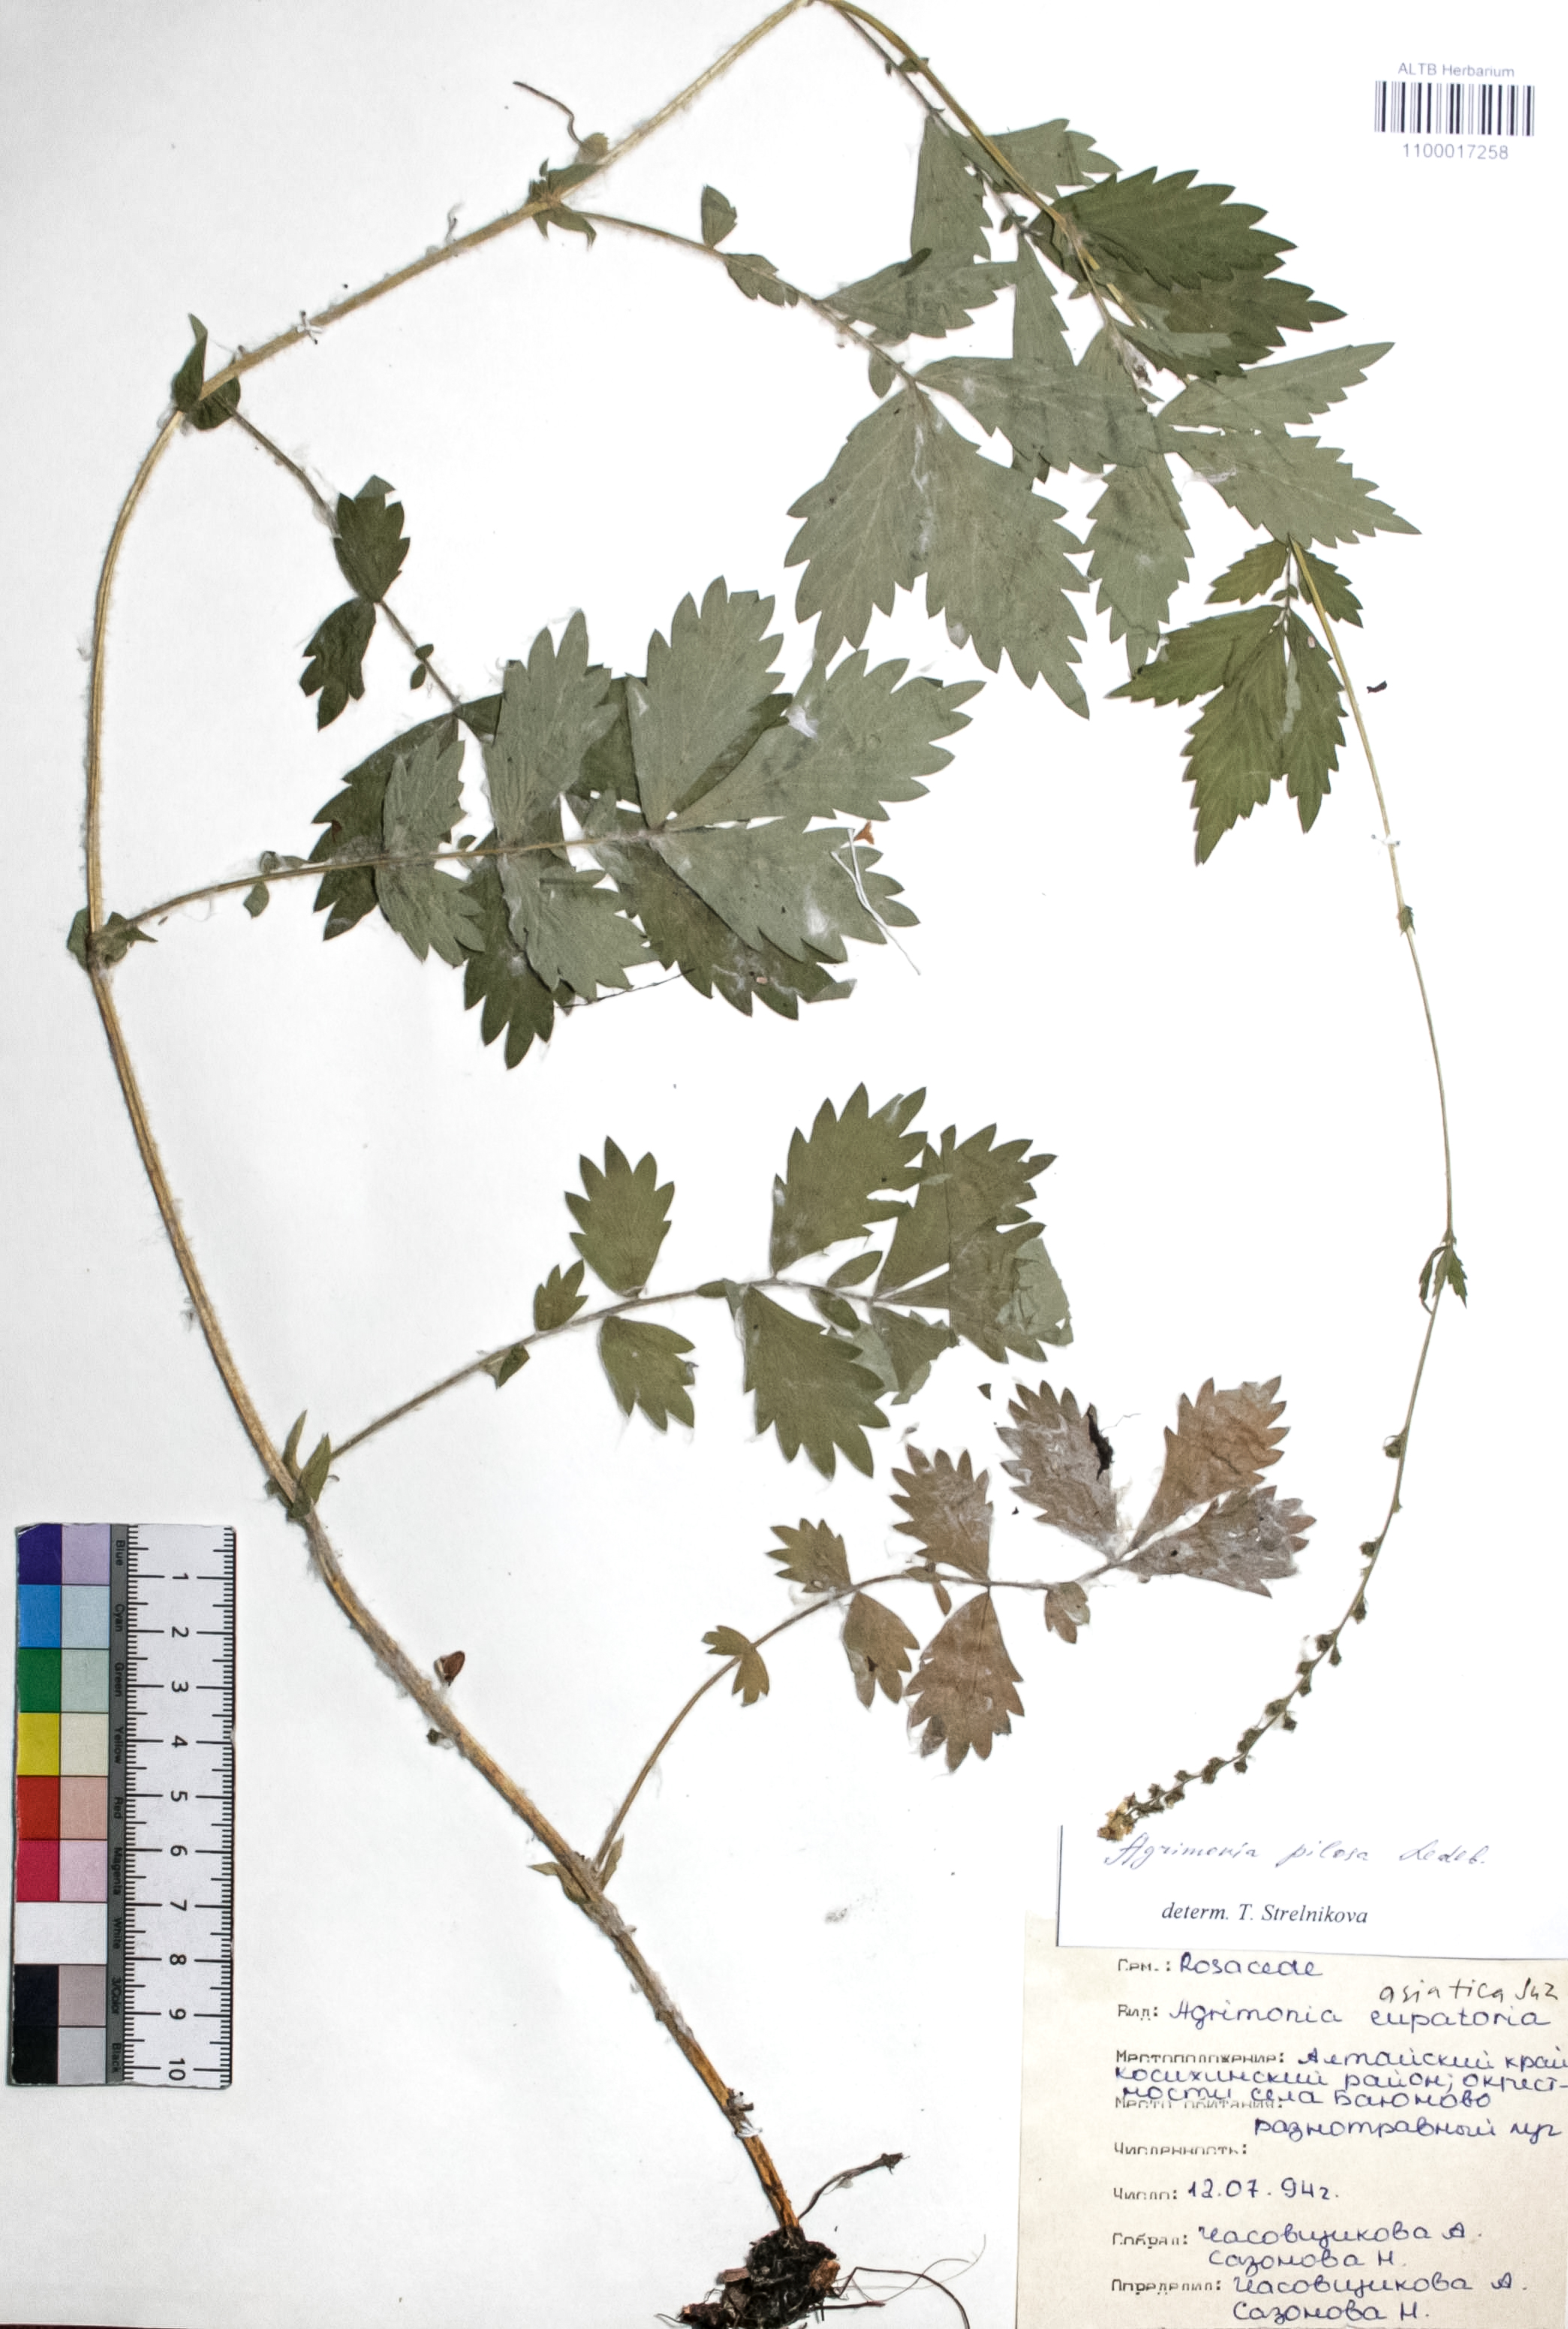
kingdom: Plantae
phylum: Tracheophyta
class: Magnoliopsida
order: Rosales
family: Rosaceae
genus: Agrimonia
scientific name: Agrimonia pilosa
